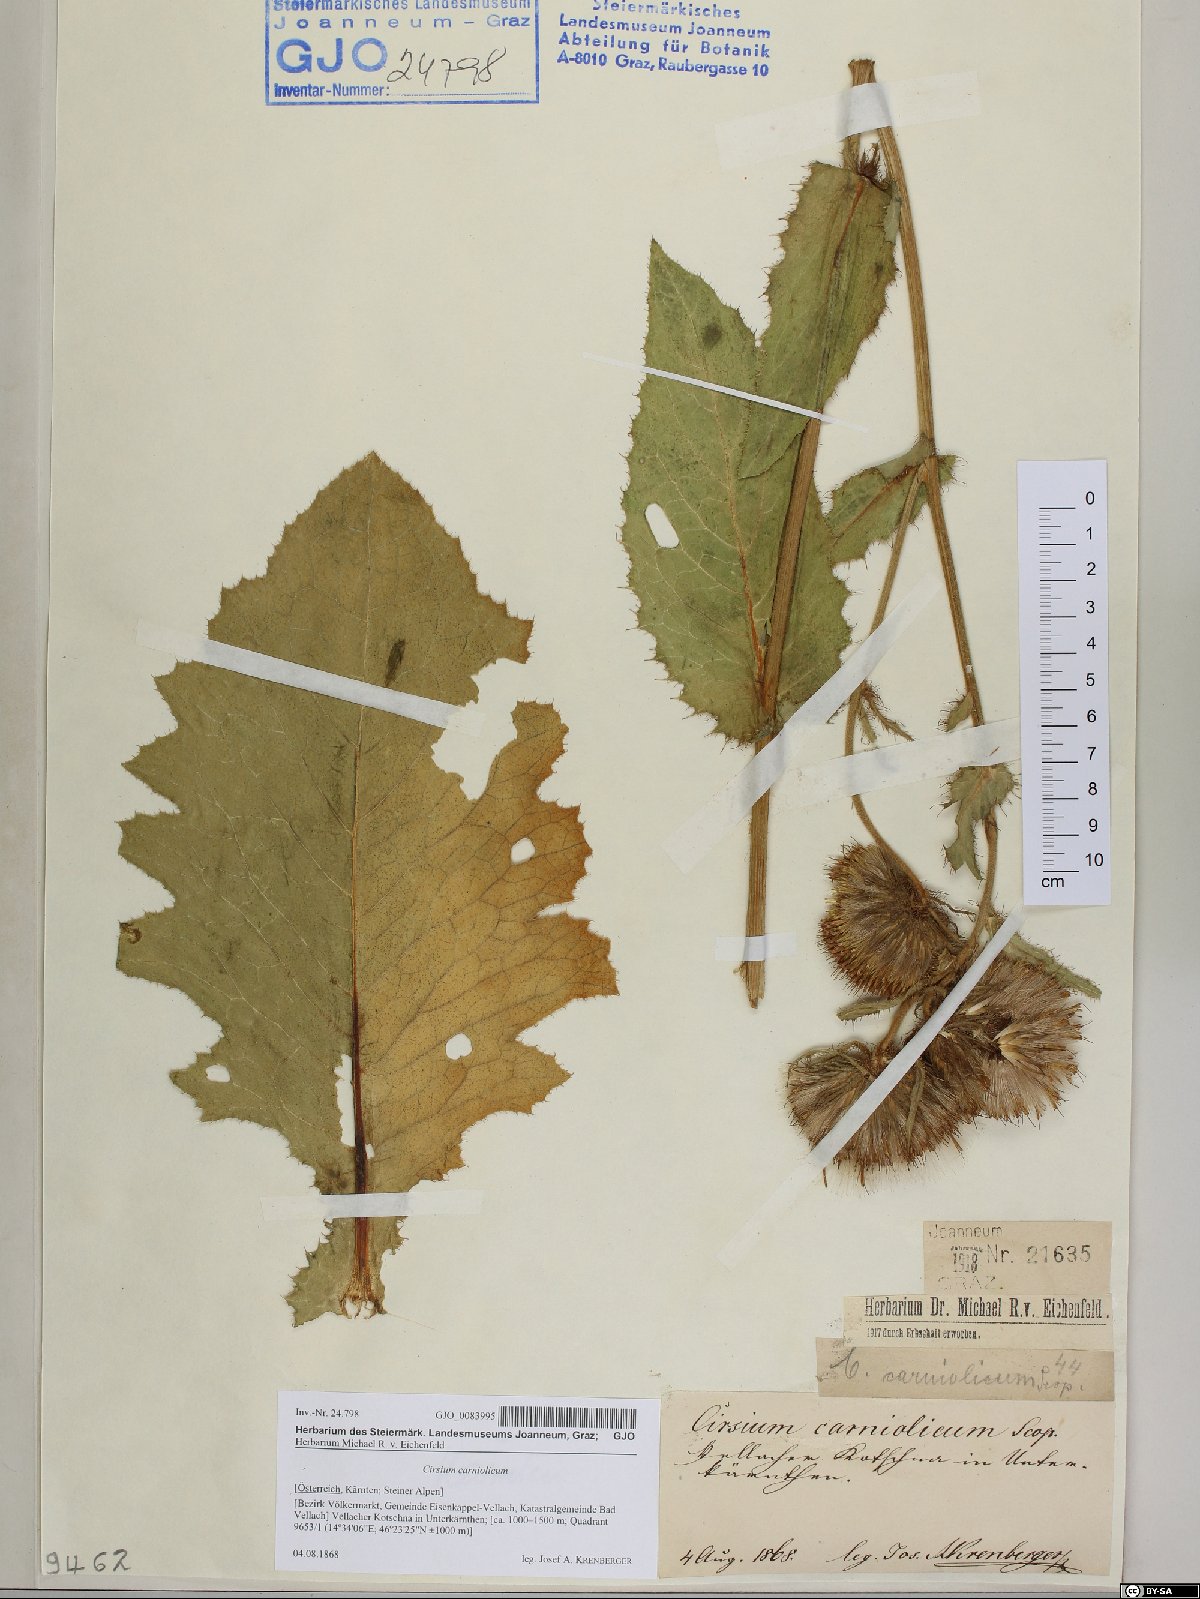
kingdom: Plantae
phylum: Tracheophyta
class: Magnoliopsida
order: Asterales
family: Asteraceae
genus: Cirsium
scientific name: Cirsium carniolicum
